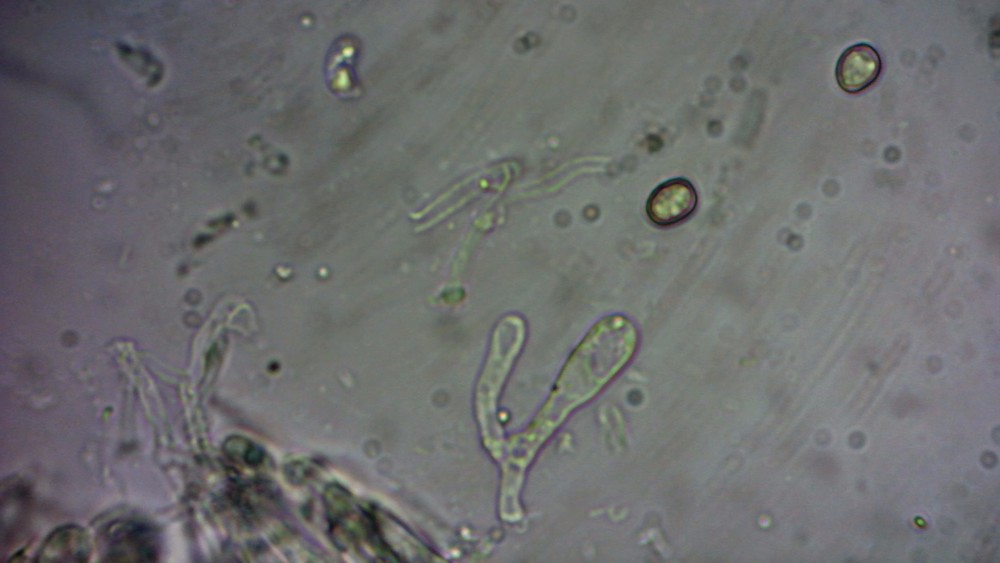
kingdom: Fungi
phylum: Basidiomycota
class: Agaricomycetes
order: Agaricales
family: Pleurotaceae
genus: Hohenbuehelia
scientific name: Hohenbuehelia cyphelliformis
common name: urte-filthat
